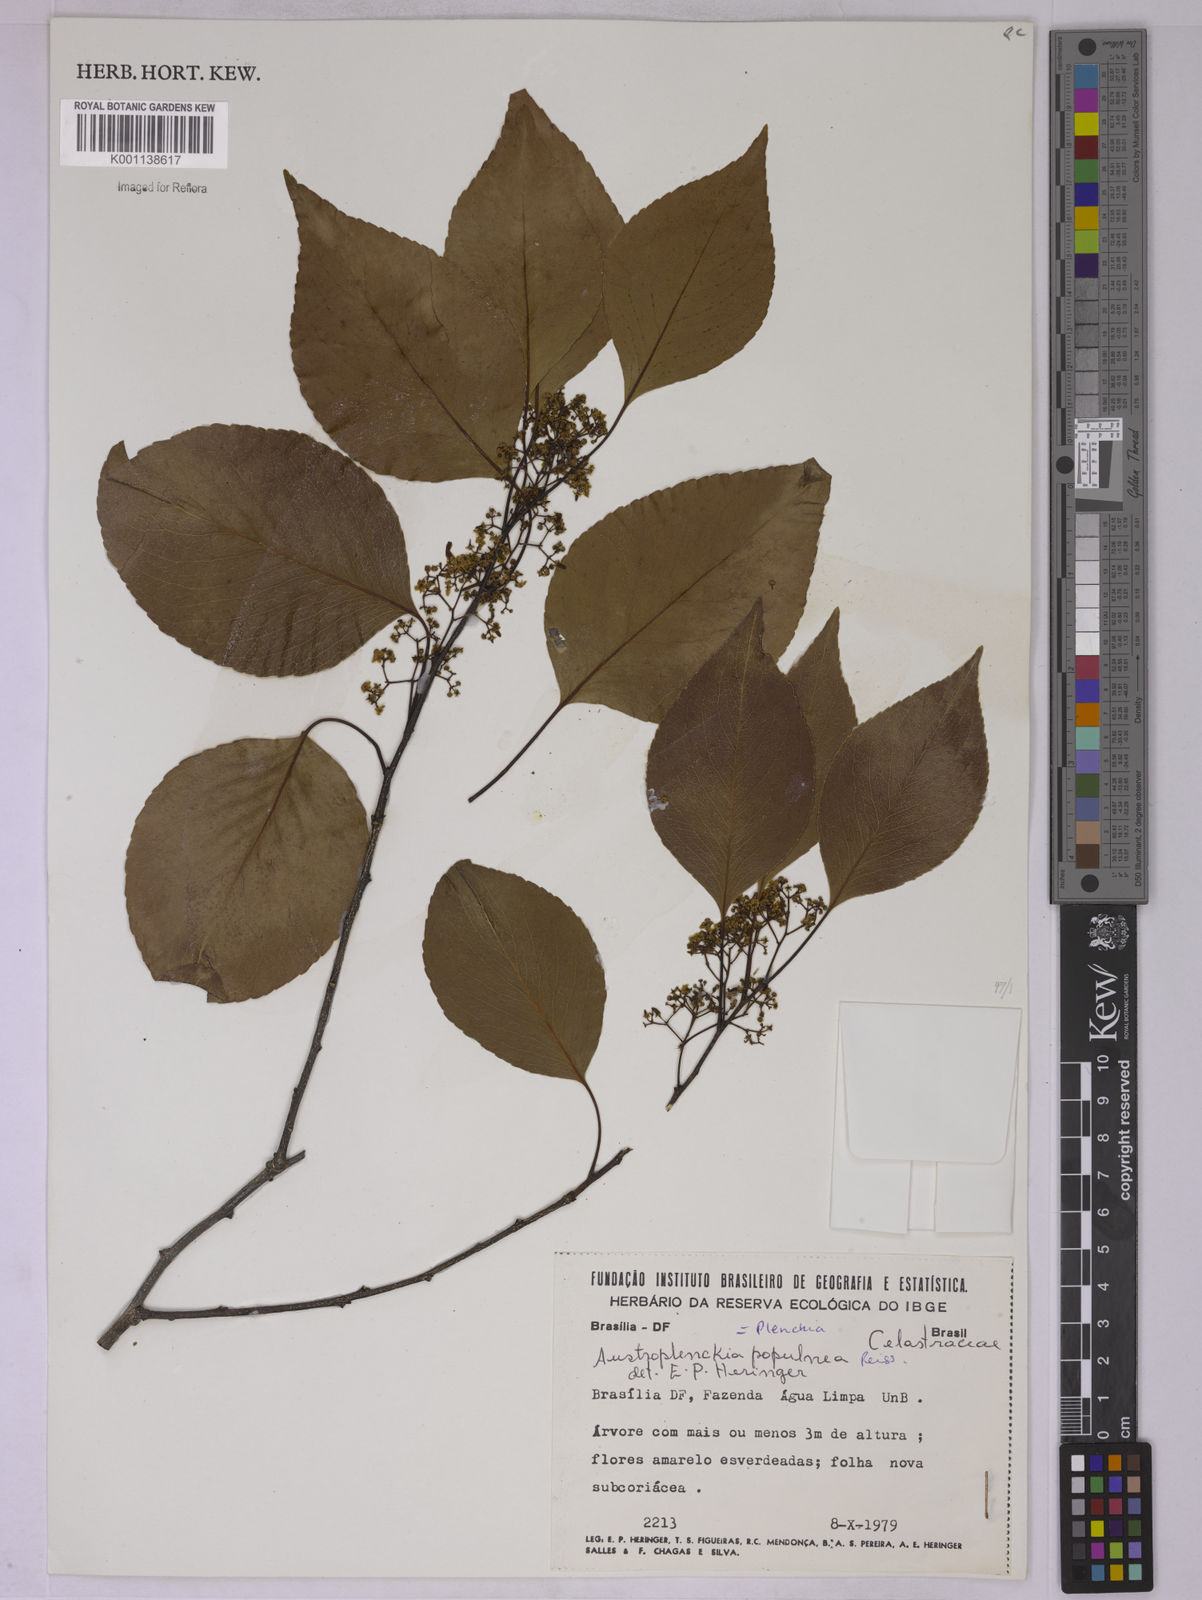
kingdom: Plantae
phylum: Tracheophyta
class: Magnoliopsida
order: Celastrales
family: Celastraceae
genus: Plenckia
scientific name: Plenckia populnea
